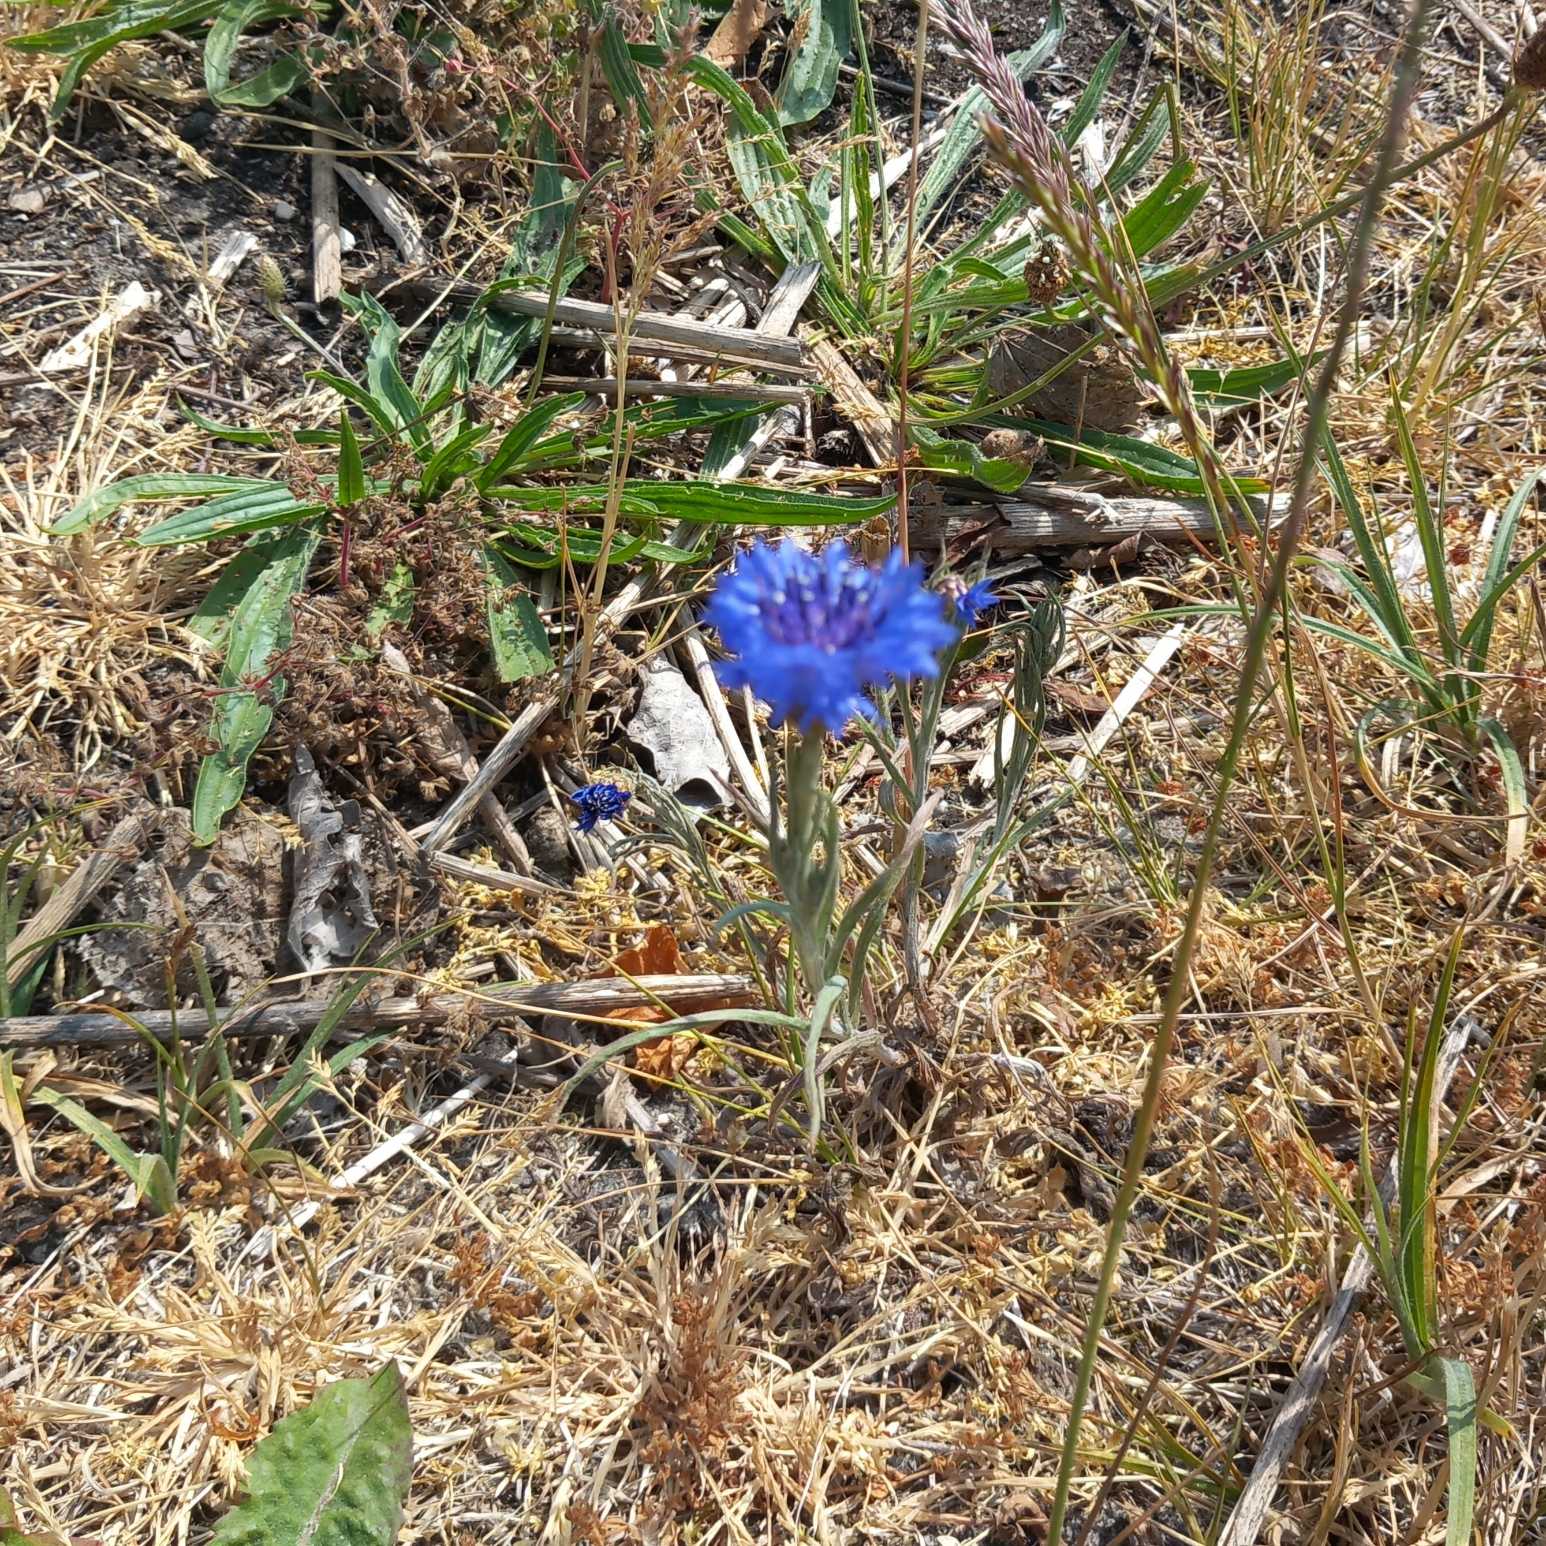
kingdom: Plantae
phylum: Tracheophyta
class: Magnoliopsida
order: Asterales
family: Asteraceae
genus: Centaurea
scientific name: Centaurea cyanus
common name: Kornblomst
